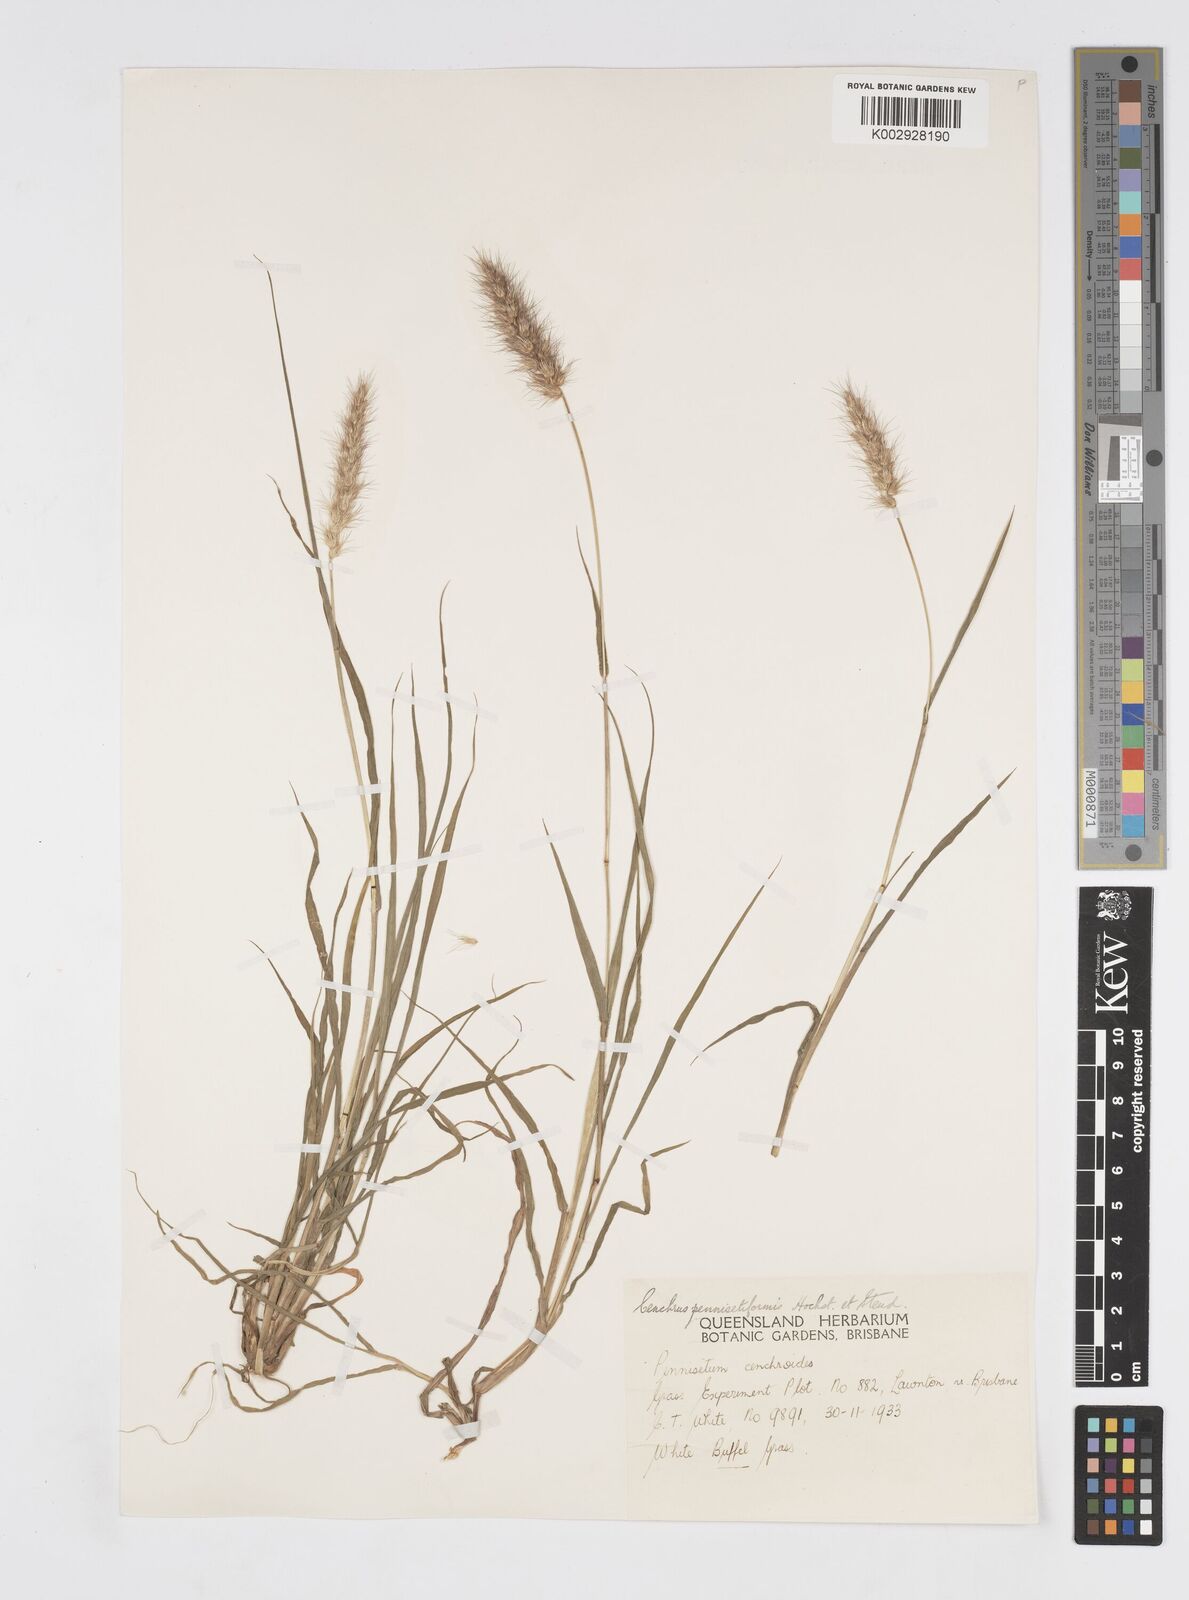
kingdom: Plantae
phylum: Tracheophyta
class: Liliopsida
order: Poales
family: Poaceae
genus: Cenchrus
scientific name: Cenchrus pennisetiformis
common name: Cloncurry
